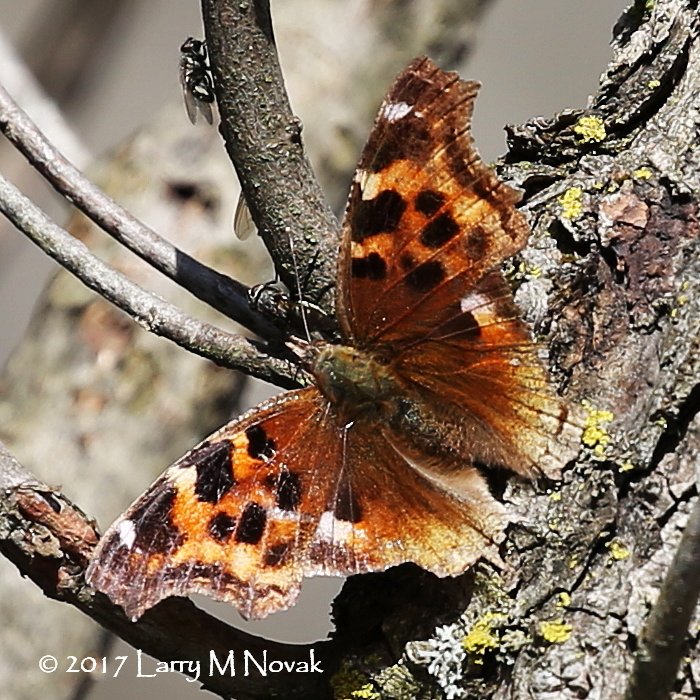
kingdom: Animalia
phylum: Arthropoda
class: Insecta
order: Lepidoptera
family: Nymphalidae
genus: Polygonia
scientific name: Polygonia vaualbum
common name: Compton Tortoiseshell
